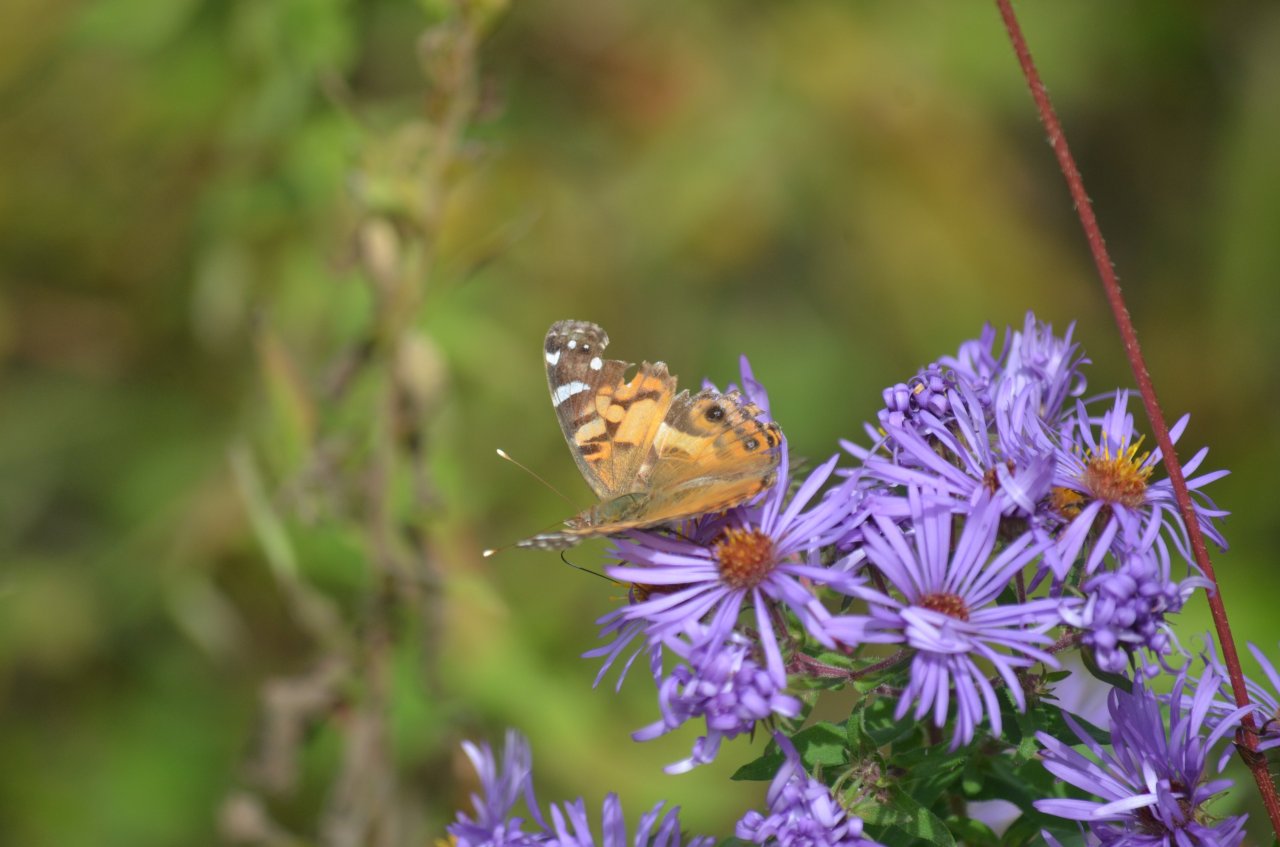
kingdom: Animalia
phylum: Arthropoda
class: Insecta
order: Lepidoptera
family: Nymphalidae
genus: Vanessa
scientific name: Vanessa virginiensis
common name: American Lady
